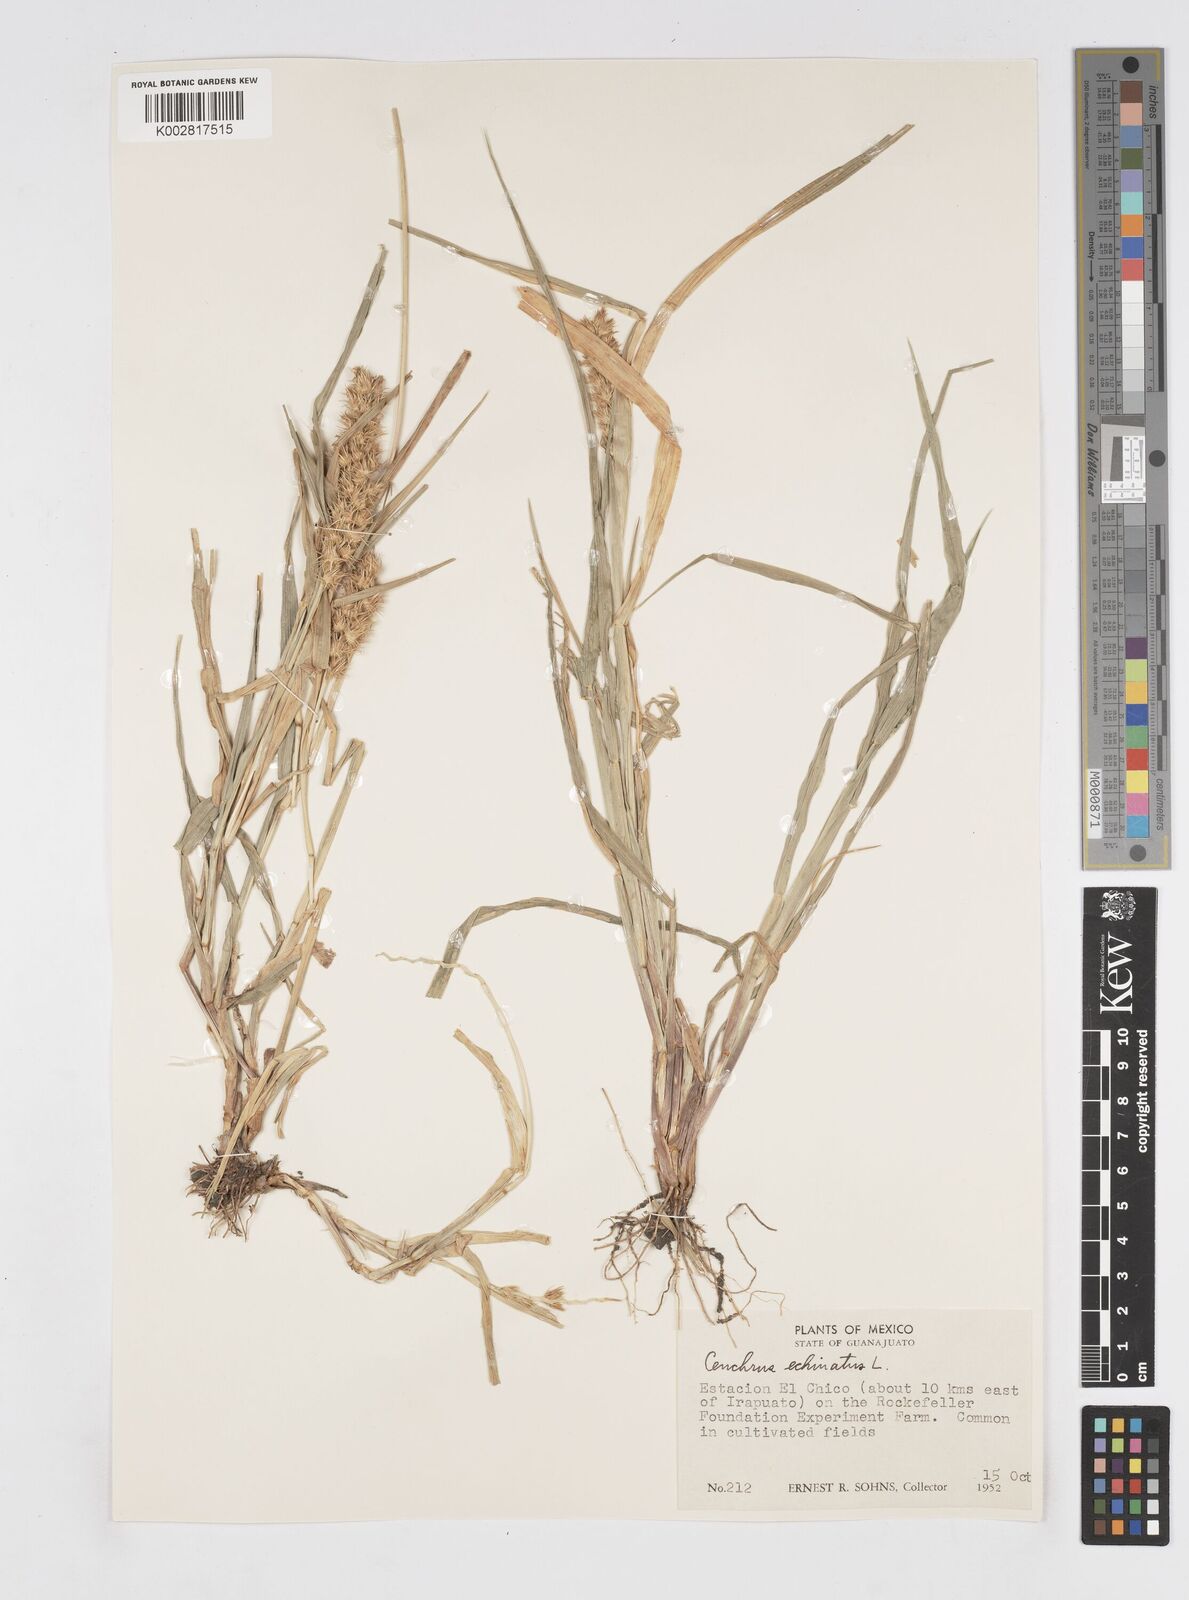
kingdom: Plantae
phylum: Tracheophyta
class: Liliopsida
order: Poales
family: Poaceae
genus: Cenchrus
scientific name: Cenchrus
